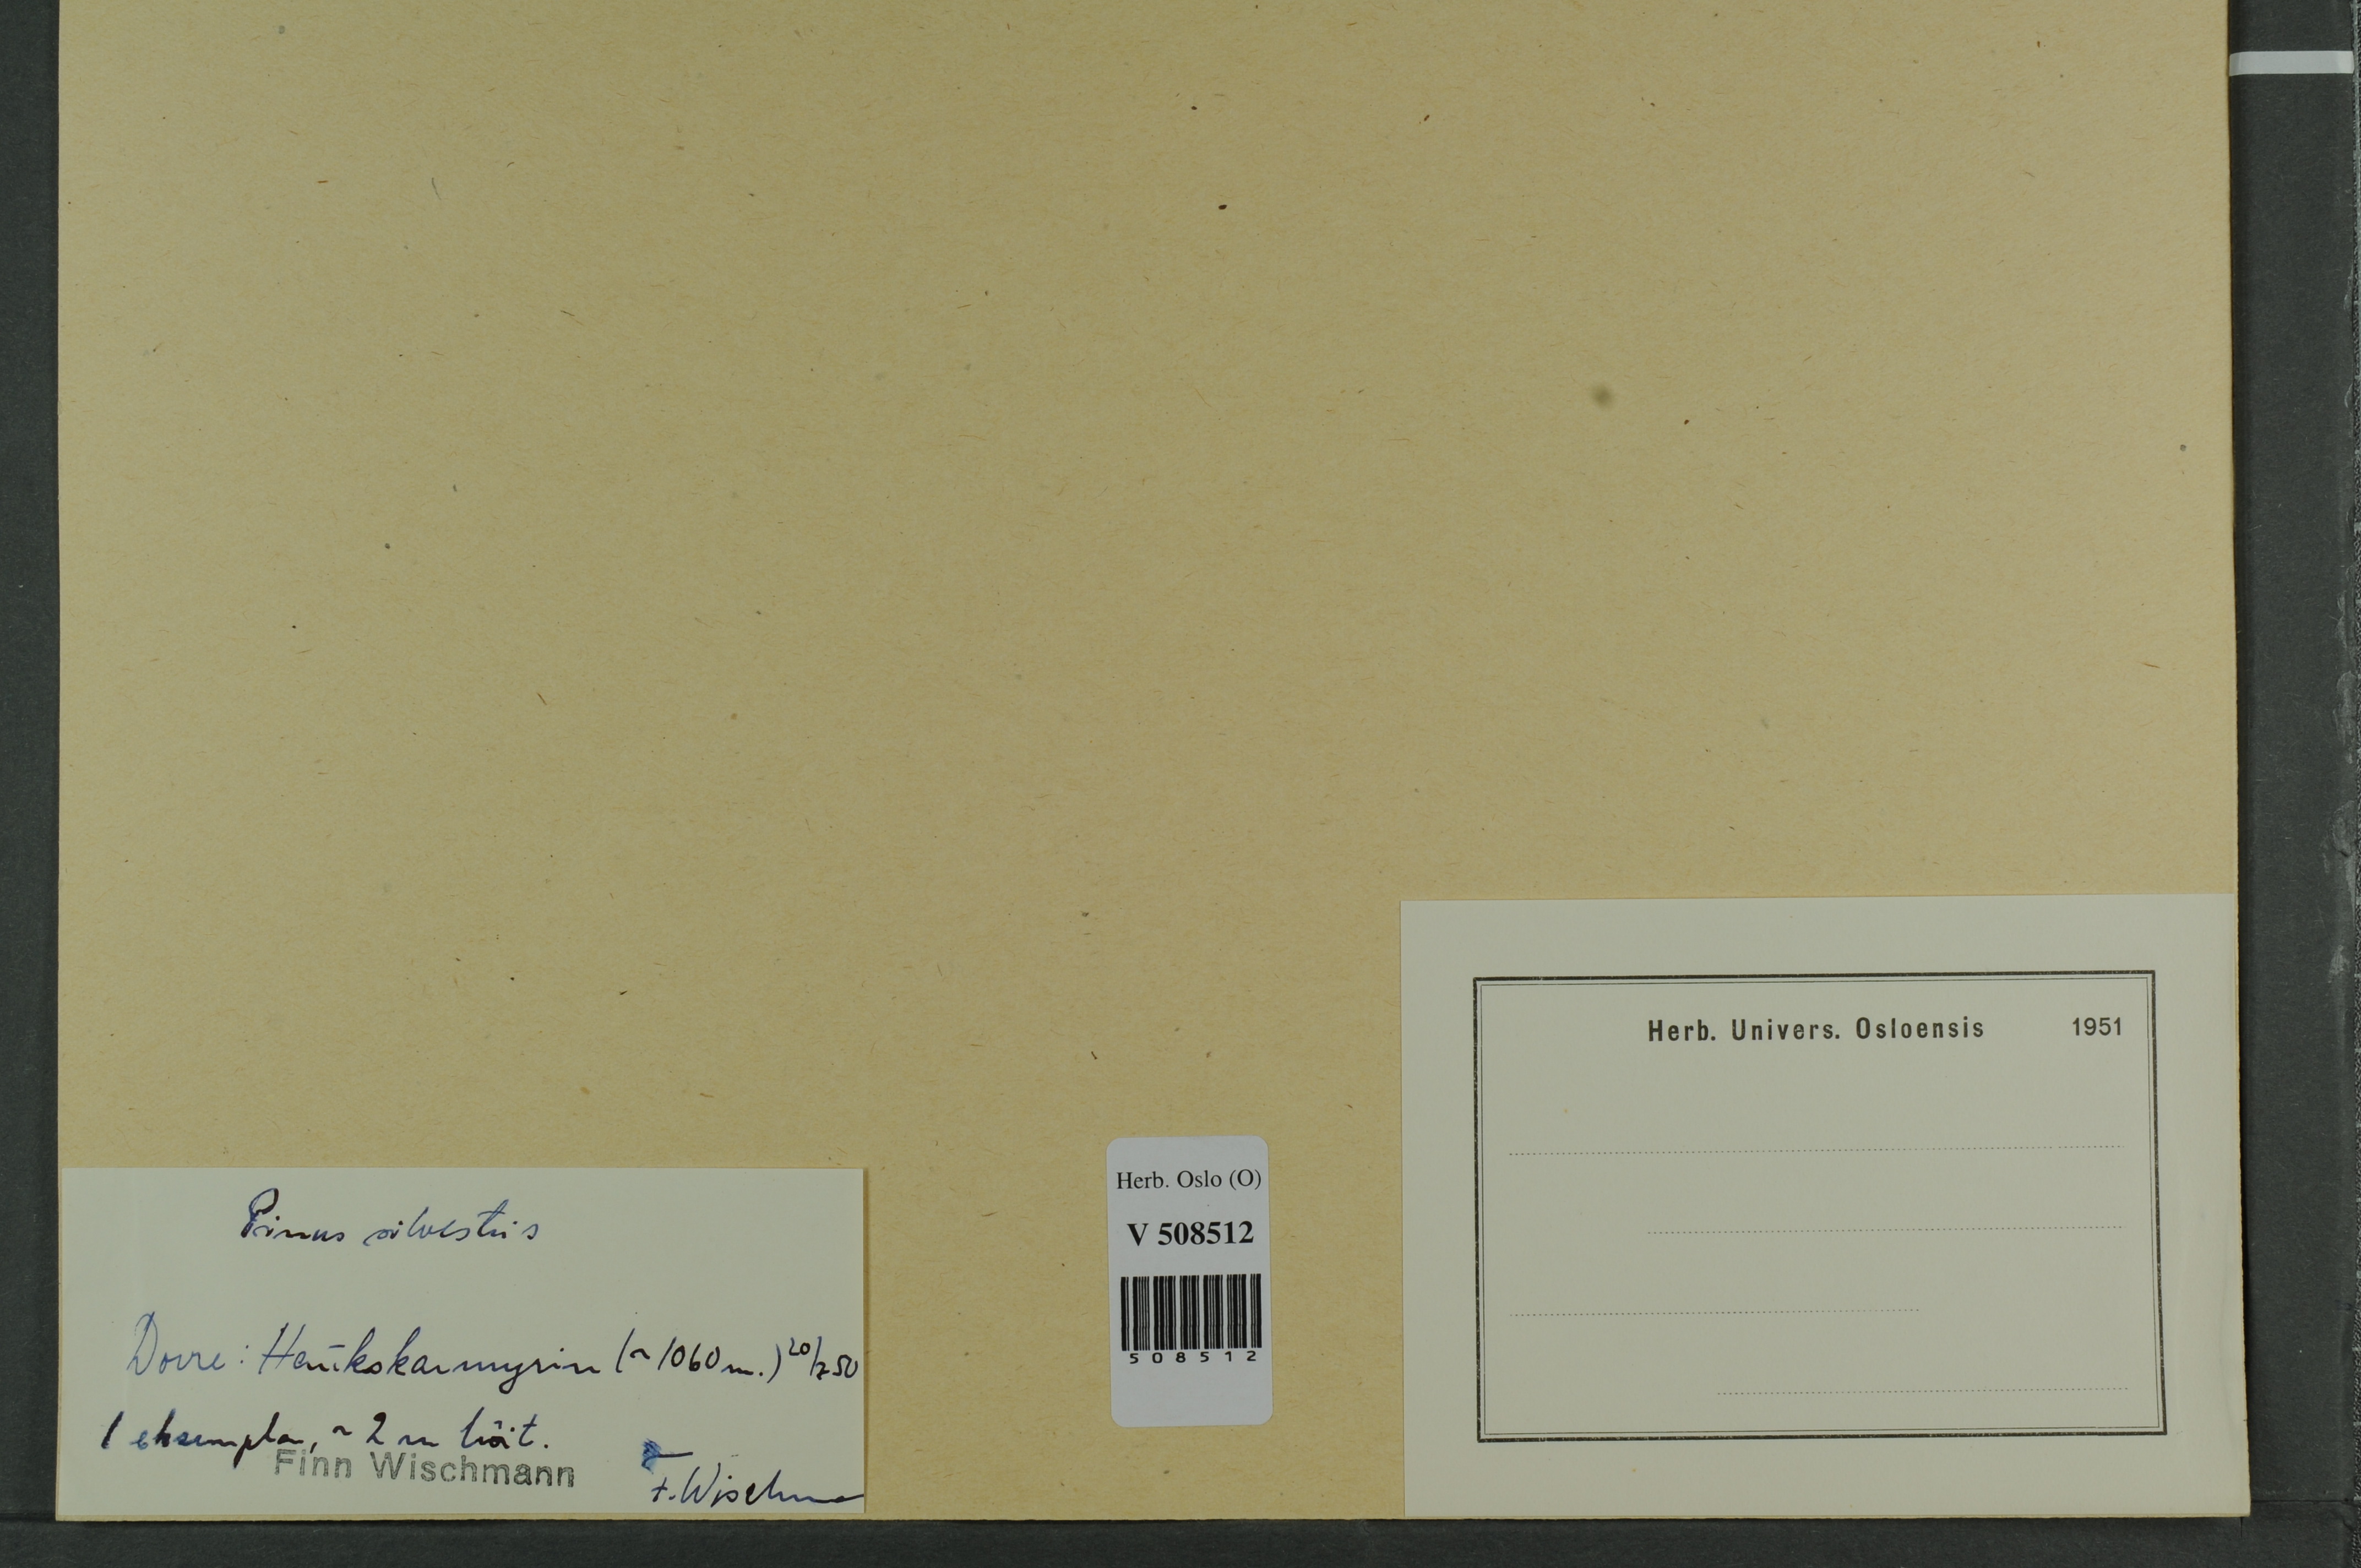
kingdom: Plantae
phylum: Tracheophyta
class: Pinopsida
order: Pinales
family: Pinaceae
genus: Pinus
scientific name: Pinus sylvestris
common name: Scots pine
